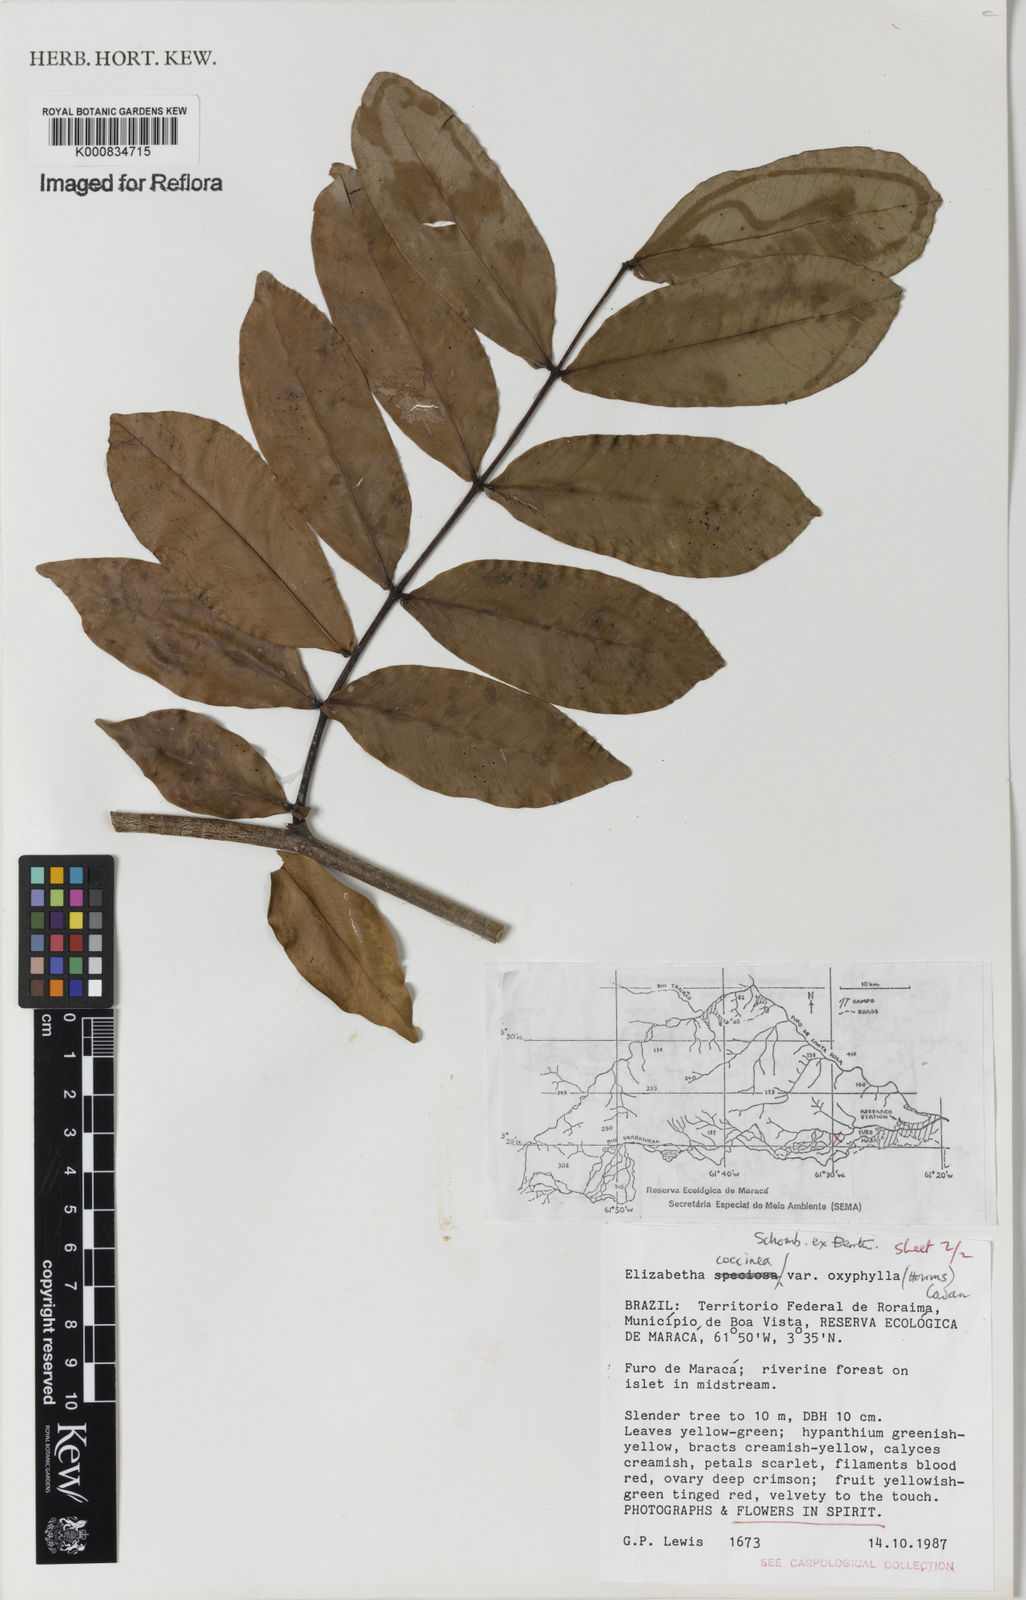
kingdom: Plantae
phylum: Tracheophyta
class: Magnoliopsida
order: Fabales
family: Fabaceae
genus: Paloue
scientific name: Paloue coccinea
